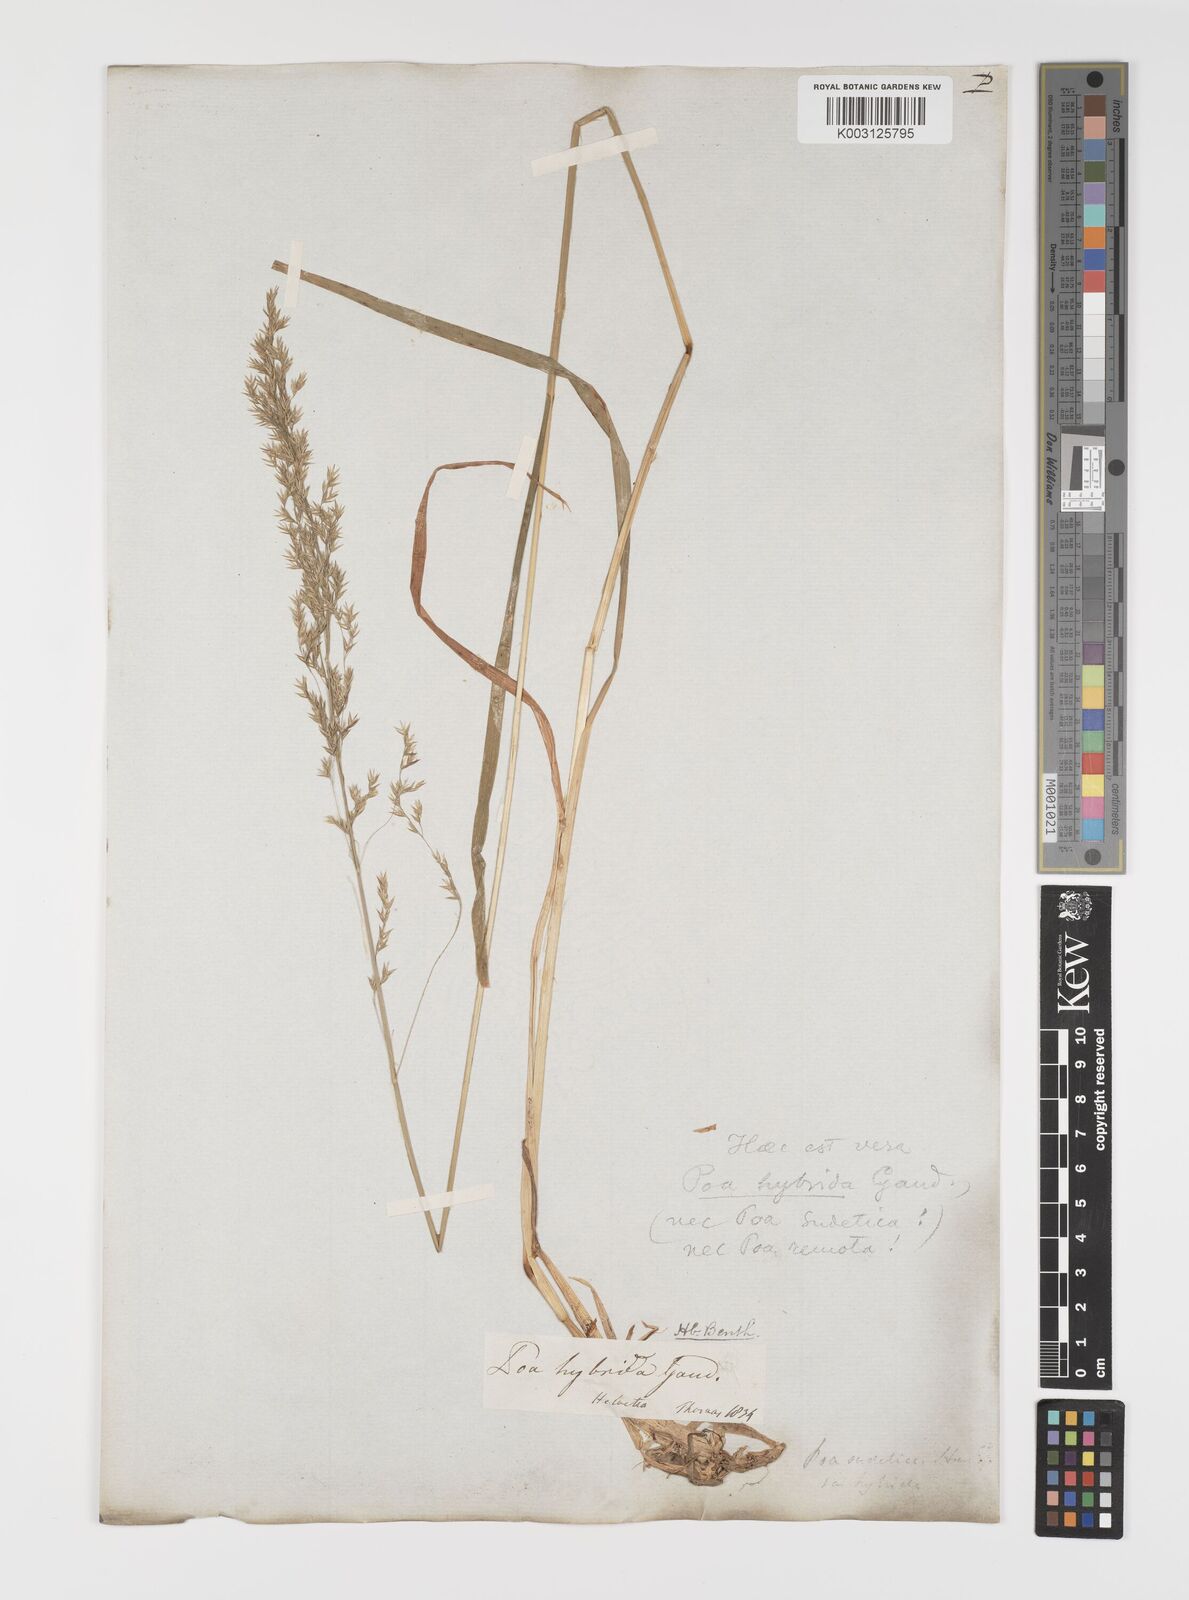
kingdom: Plantae
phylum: Tracheophyta
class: Liliopsida
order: Poales
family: Poaceae
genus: Poa
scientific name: Poa hybrida
